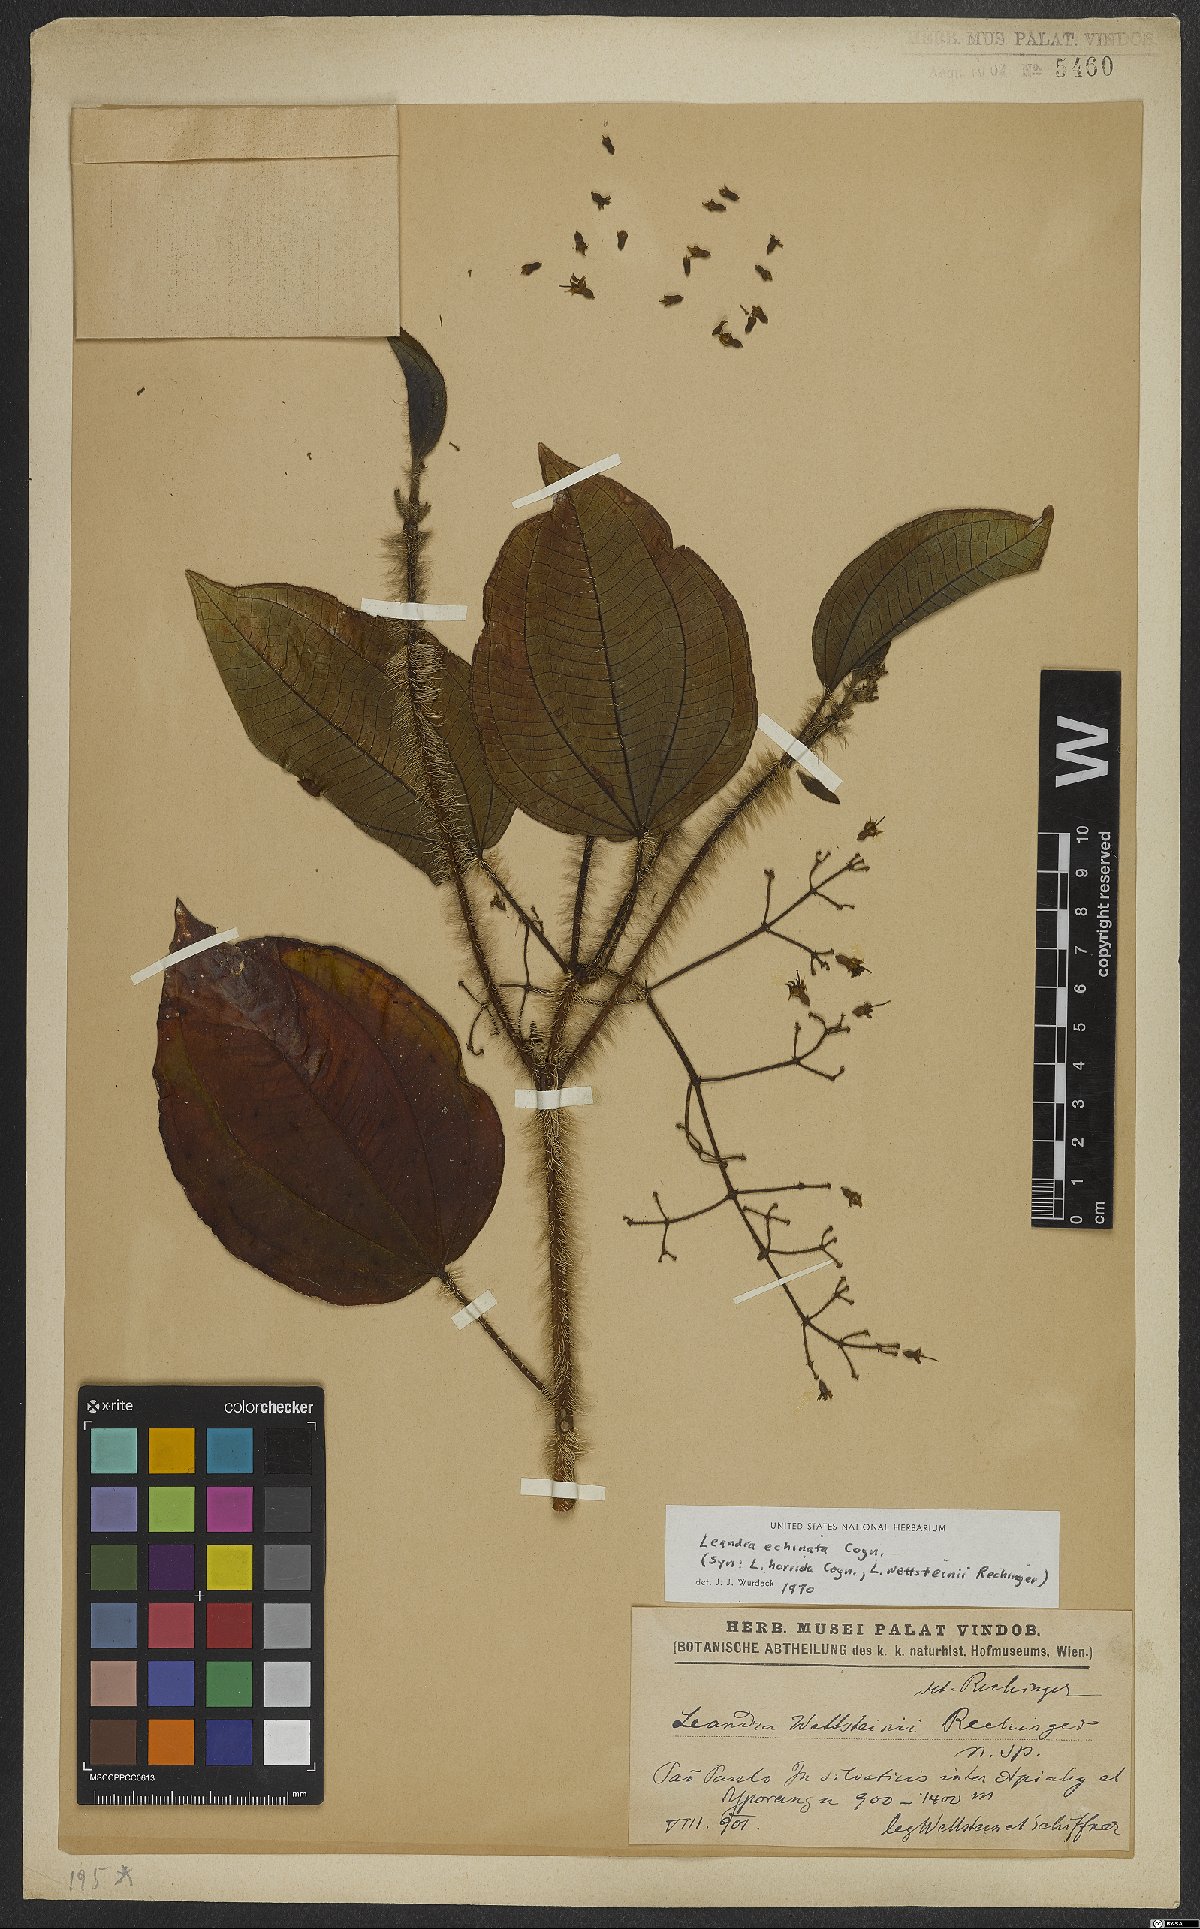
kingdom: Plantae
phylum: Tracheophyta
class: Magnoliopsida
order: Myrtales
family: Melastomataceae
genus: Miconia
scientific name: Miconia leaechinata
